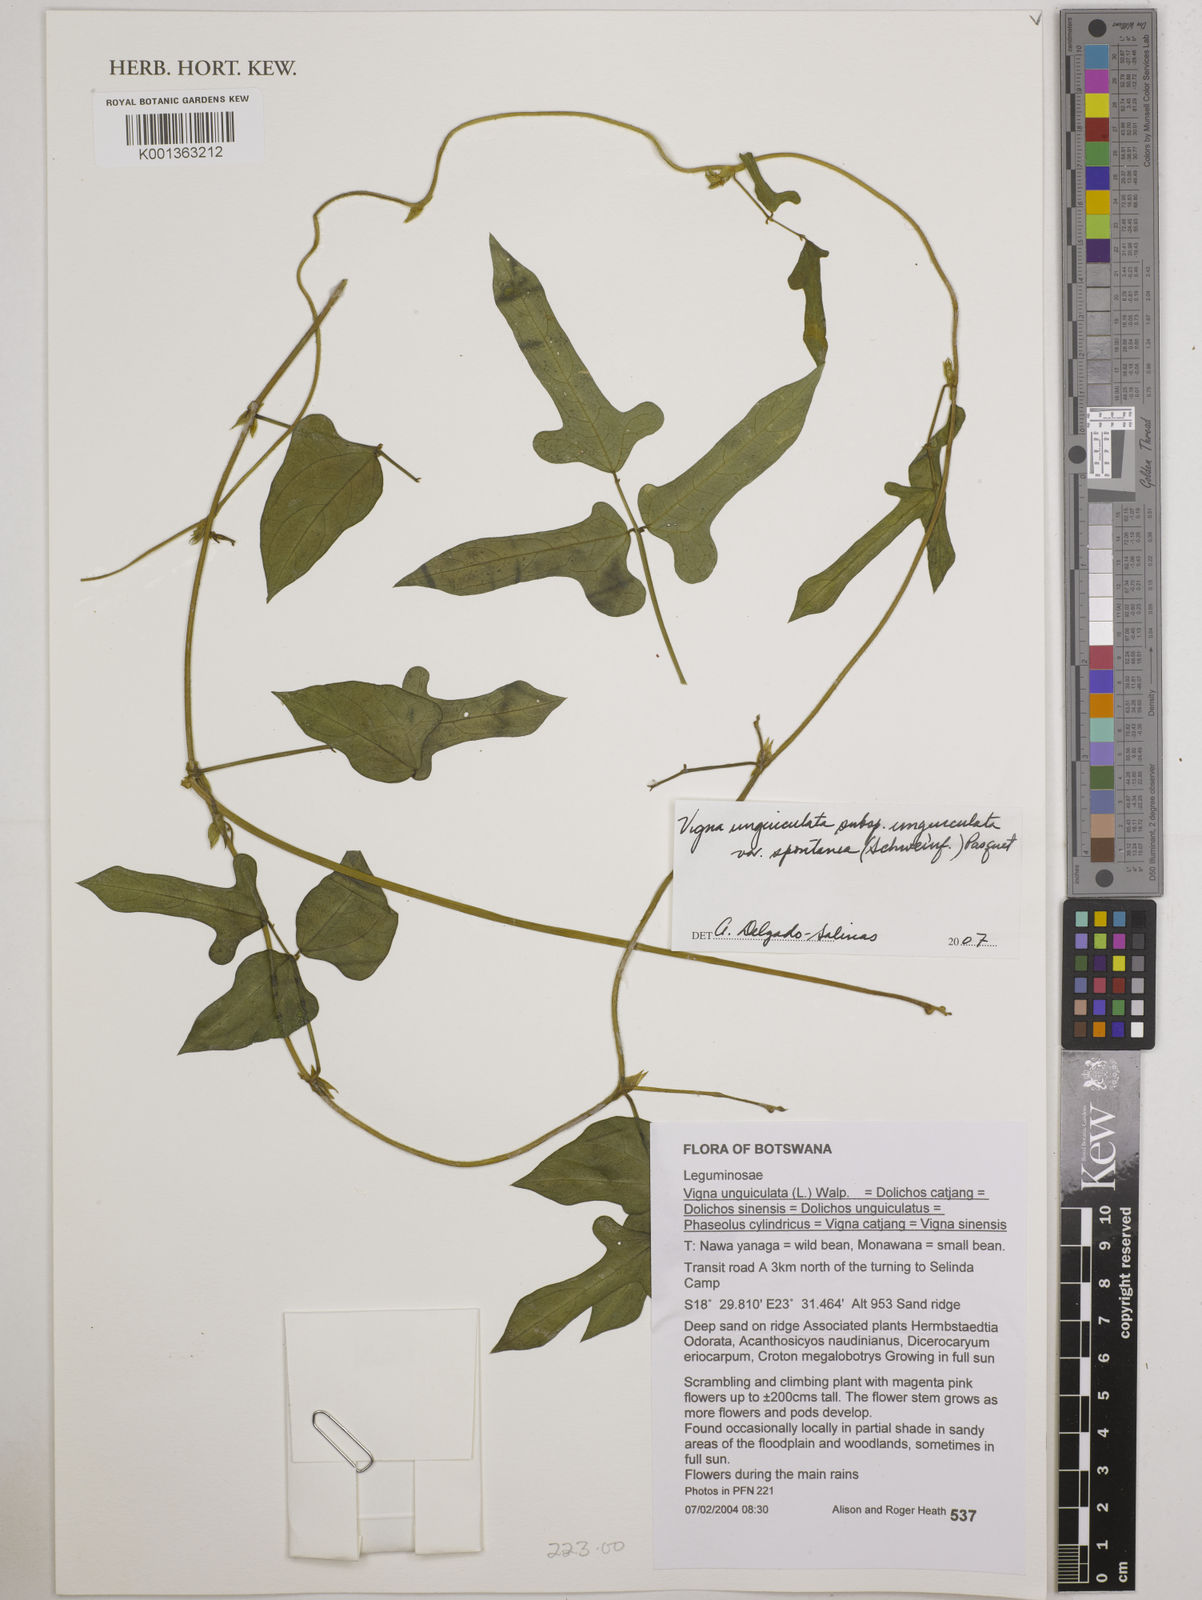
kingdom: Plantae
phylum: Tracheophyta
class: Magnoliopsida
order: Fabales
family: Fabaceae
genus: Vigna
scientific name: Vigna unguiculata
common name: Cowpea
